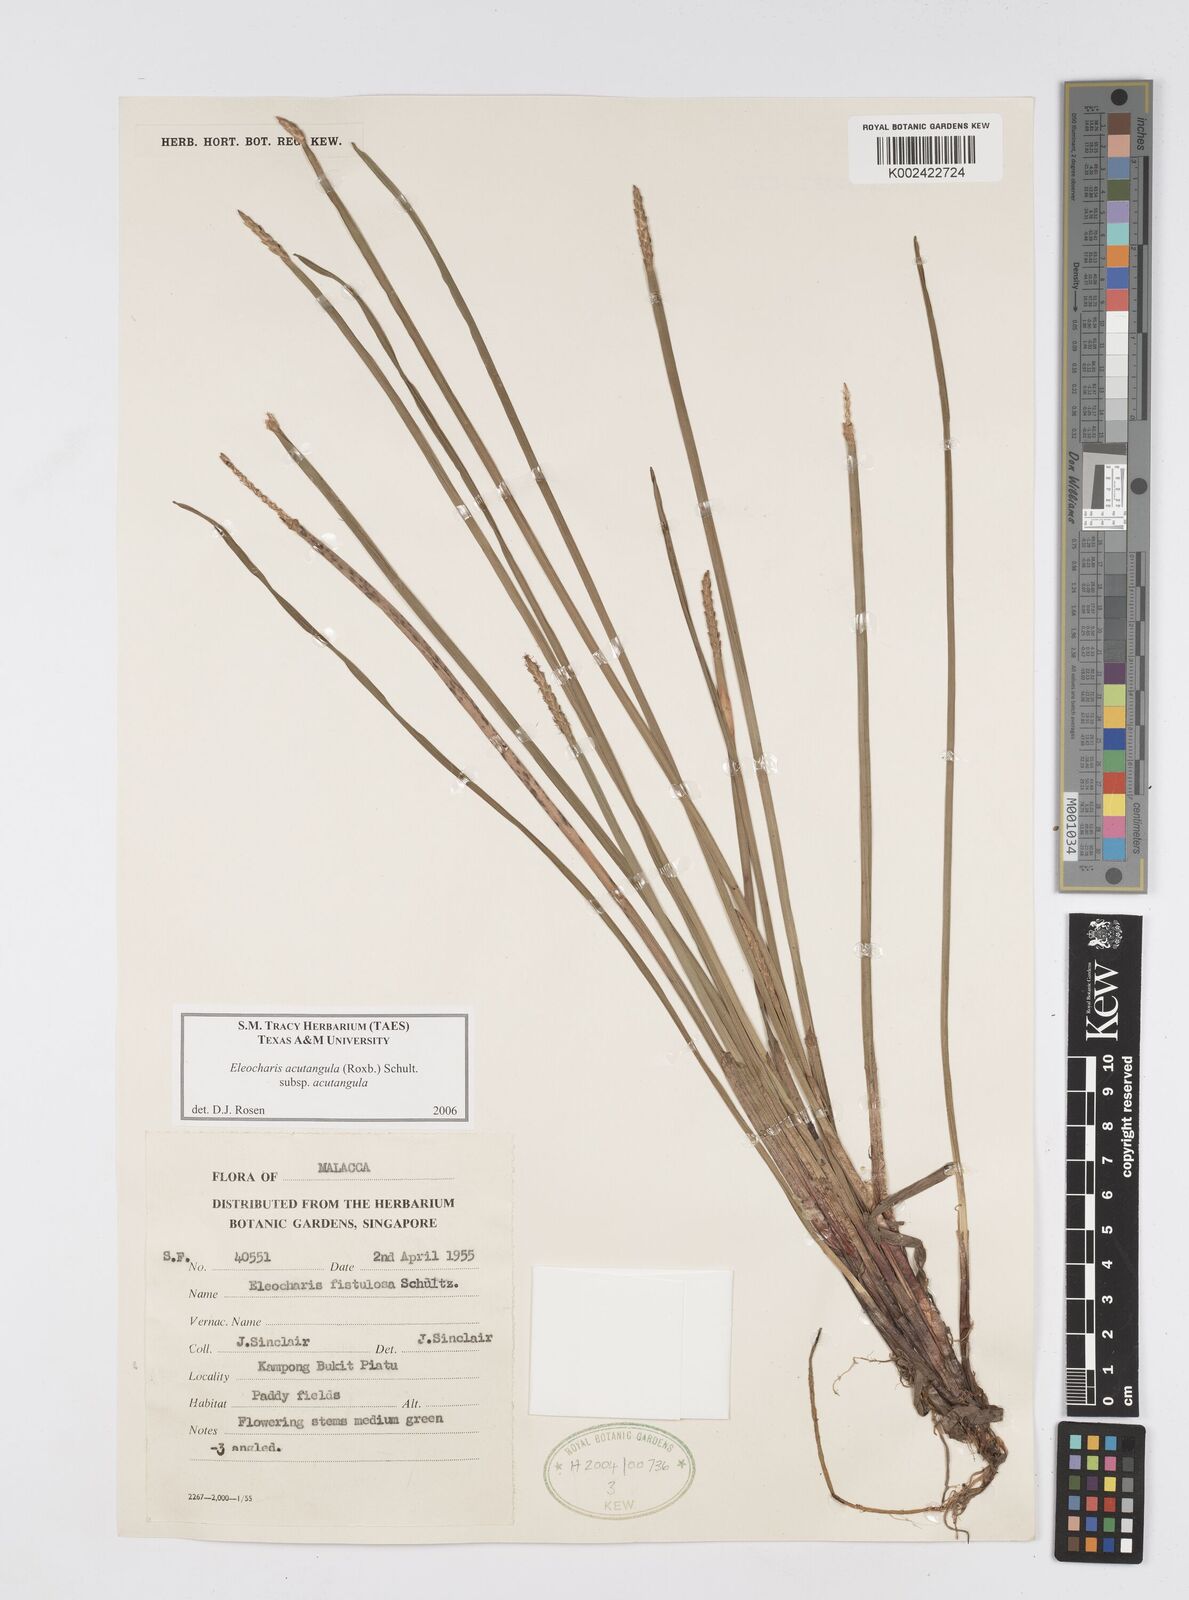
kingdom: Plantae
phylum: Tracheophyta
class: Liliopsida
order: Poales
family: Cyperaceae
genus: Eleocharis
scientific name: Eleocharis acutangula
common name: Acute spikerush
